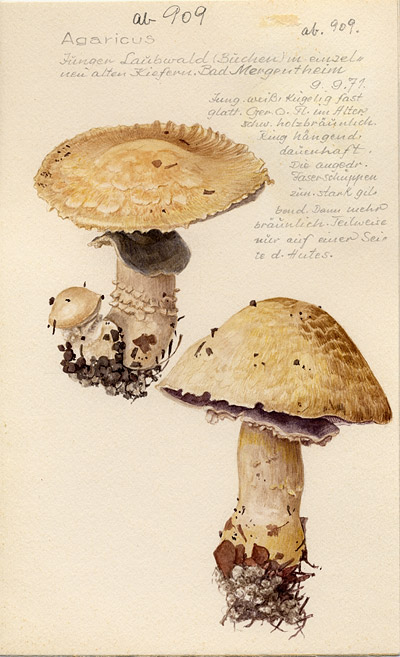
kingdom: Fungi
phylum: Basidiomycota
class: Agaricomycetes
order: Agaricales
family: Agaricaceae
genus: Agaricus
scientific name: Agaricus
